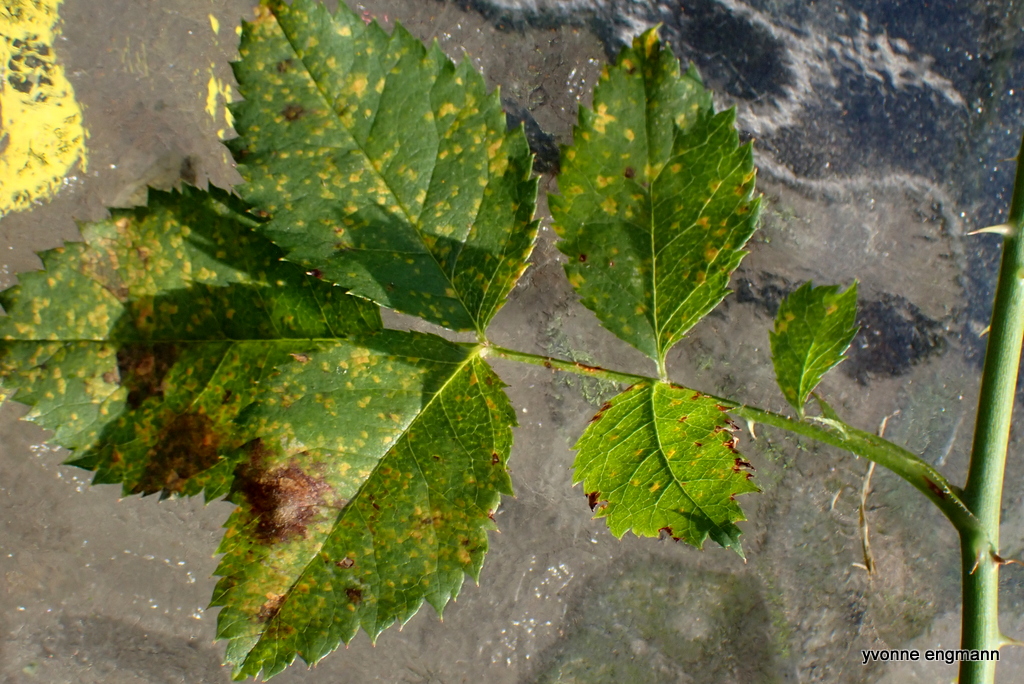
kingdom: Fungi
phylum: Basidiomycota
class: Pucciniomycetes
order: Pucciniales
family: Phragmidiaceae
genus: Phragmidium
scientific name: Phragmidium
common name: flercellerust
